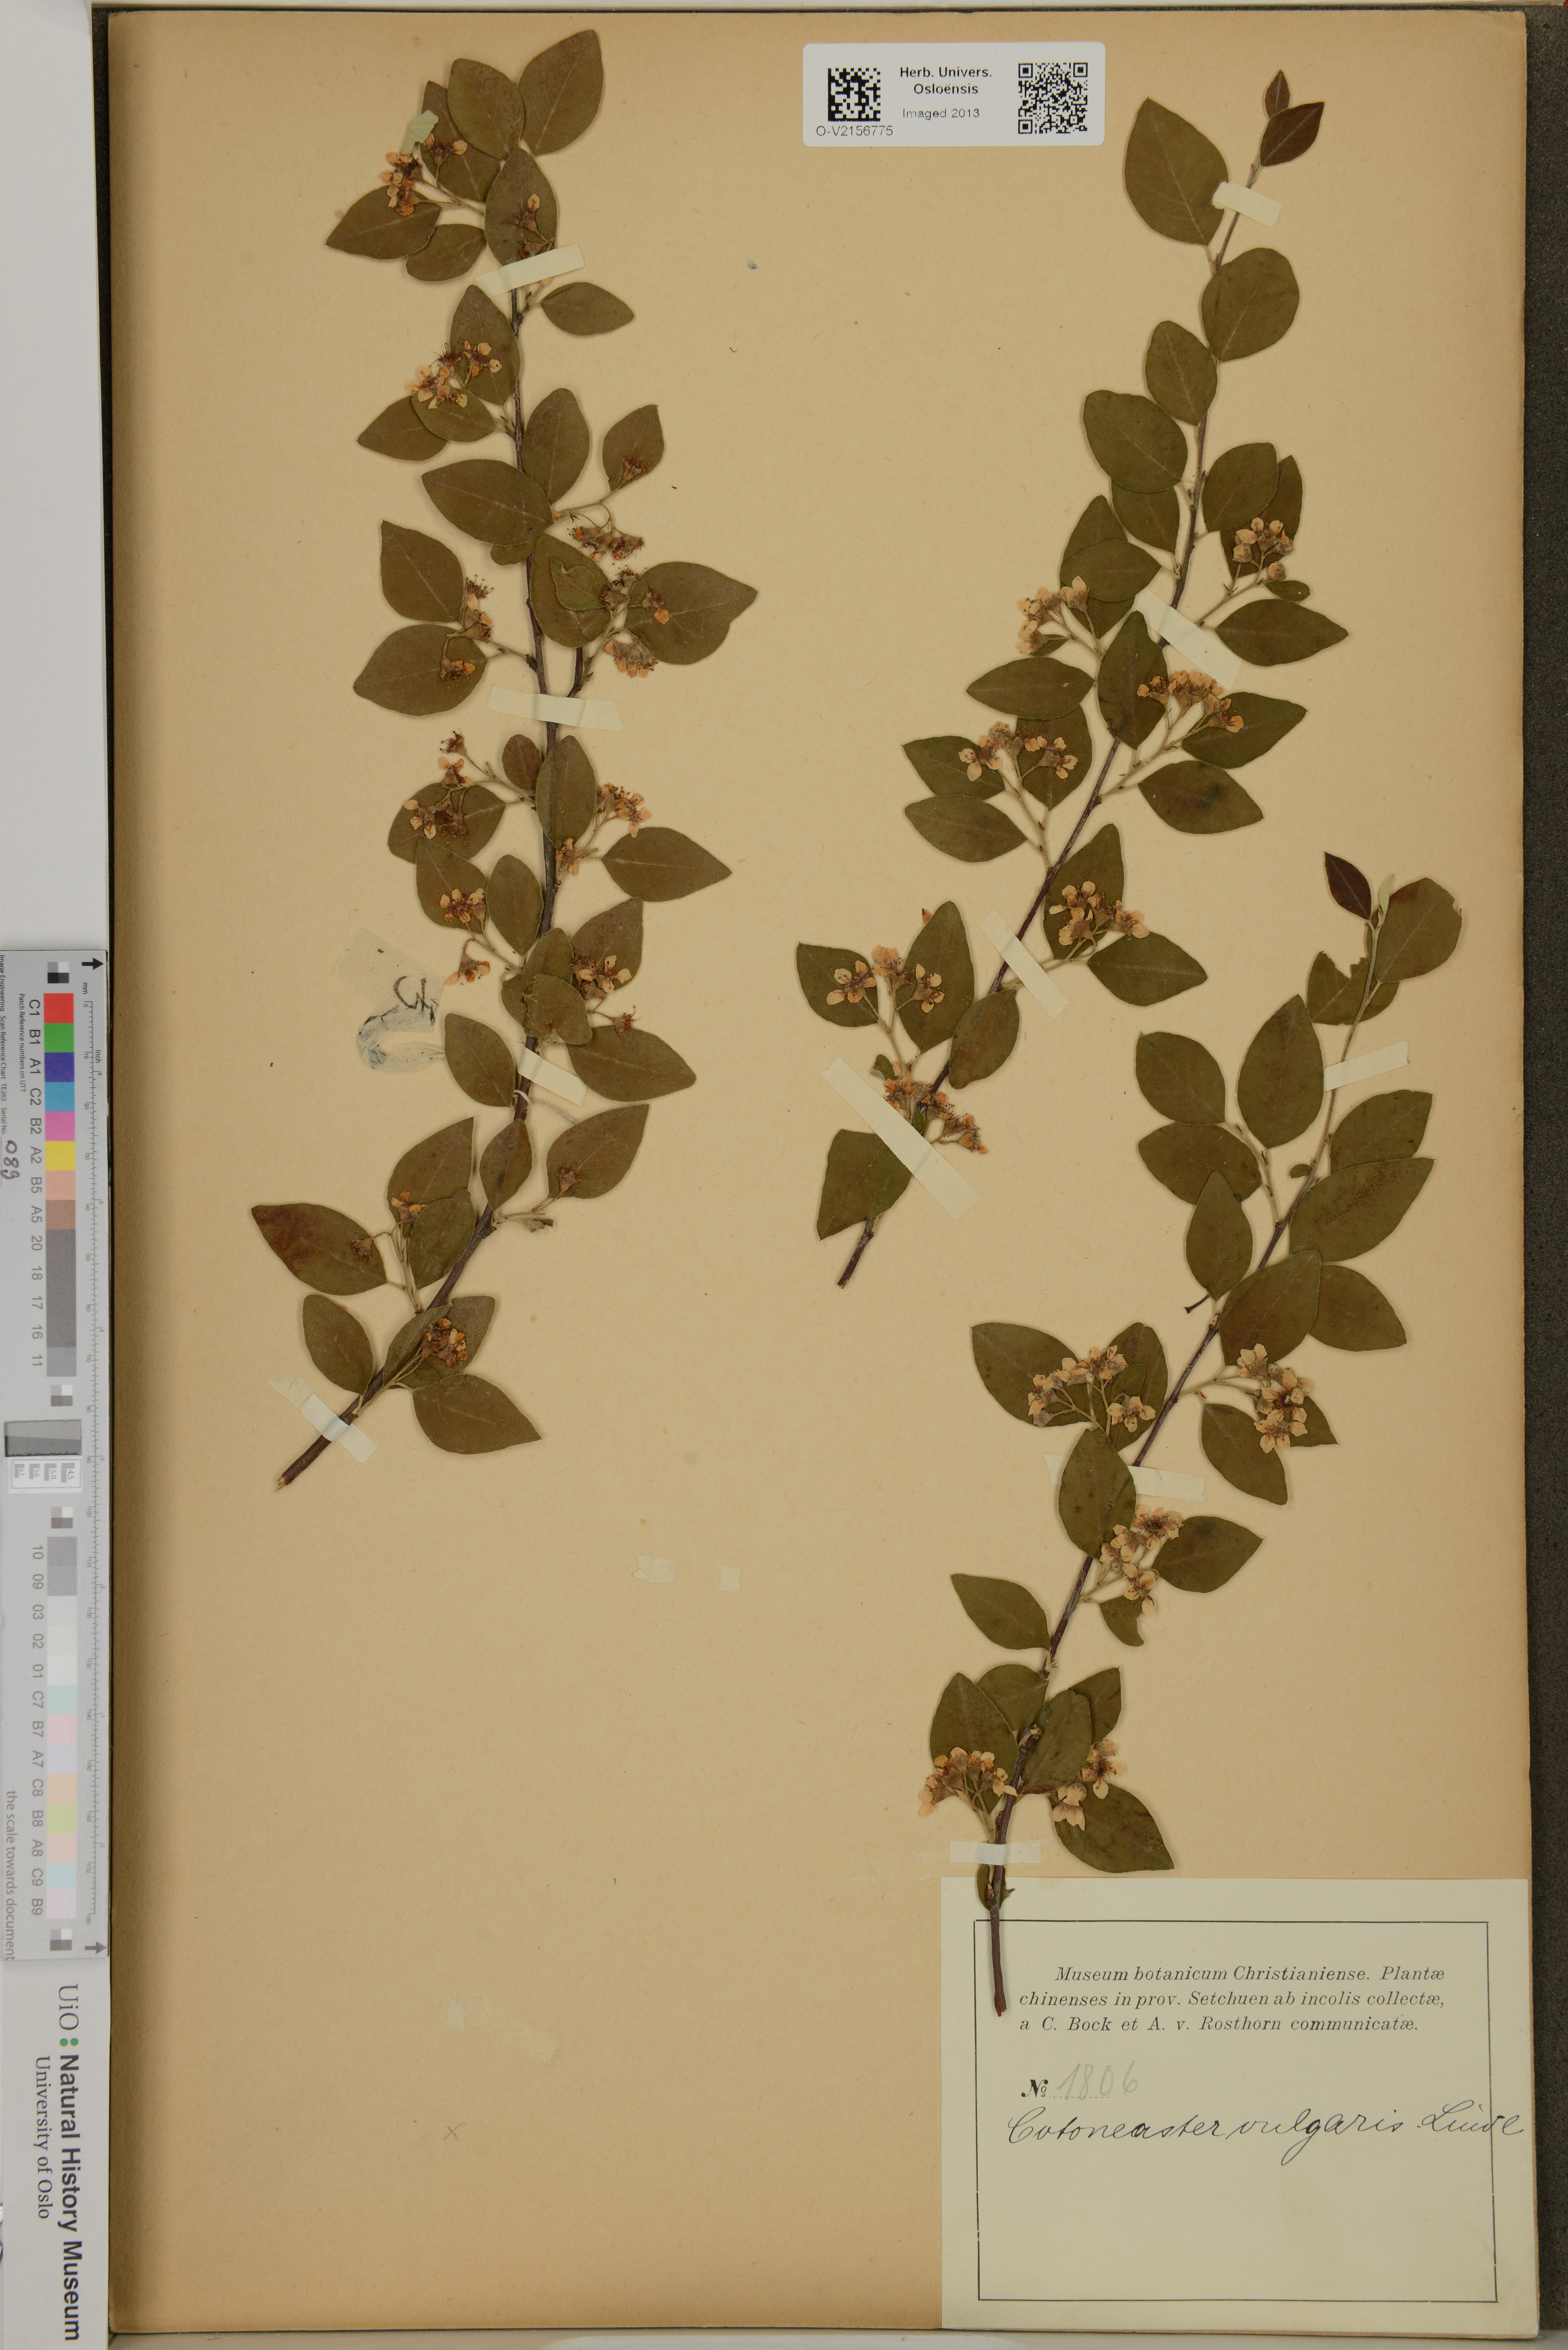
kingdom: Plantae
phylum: Tracheophyta
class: Magnoliopsida
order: Rosales
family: Rosaceae
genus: Cotoneaster
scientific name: Cotoneaster integerrimus
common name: Wild cotoneaster
